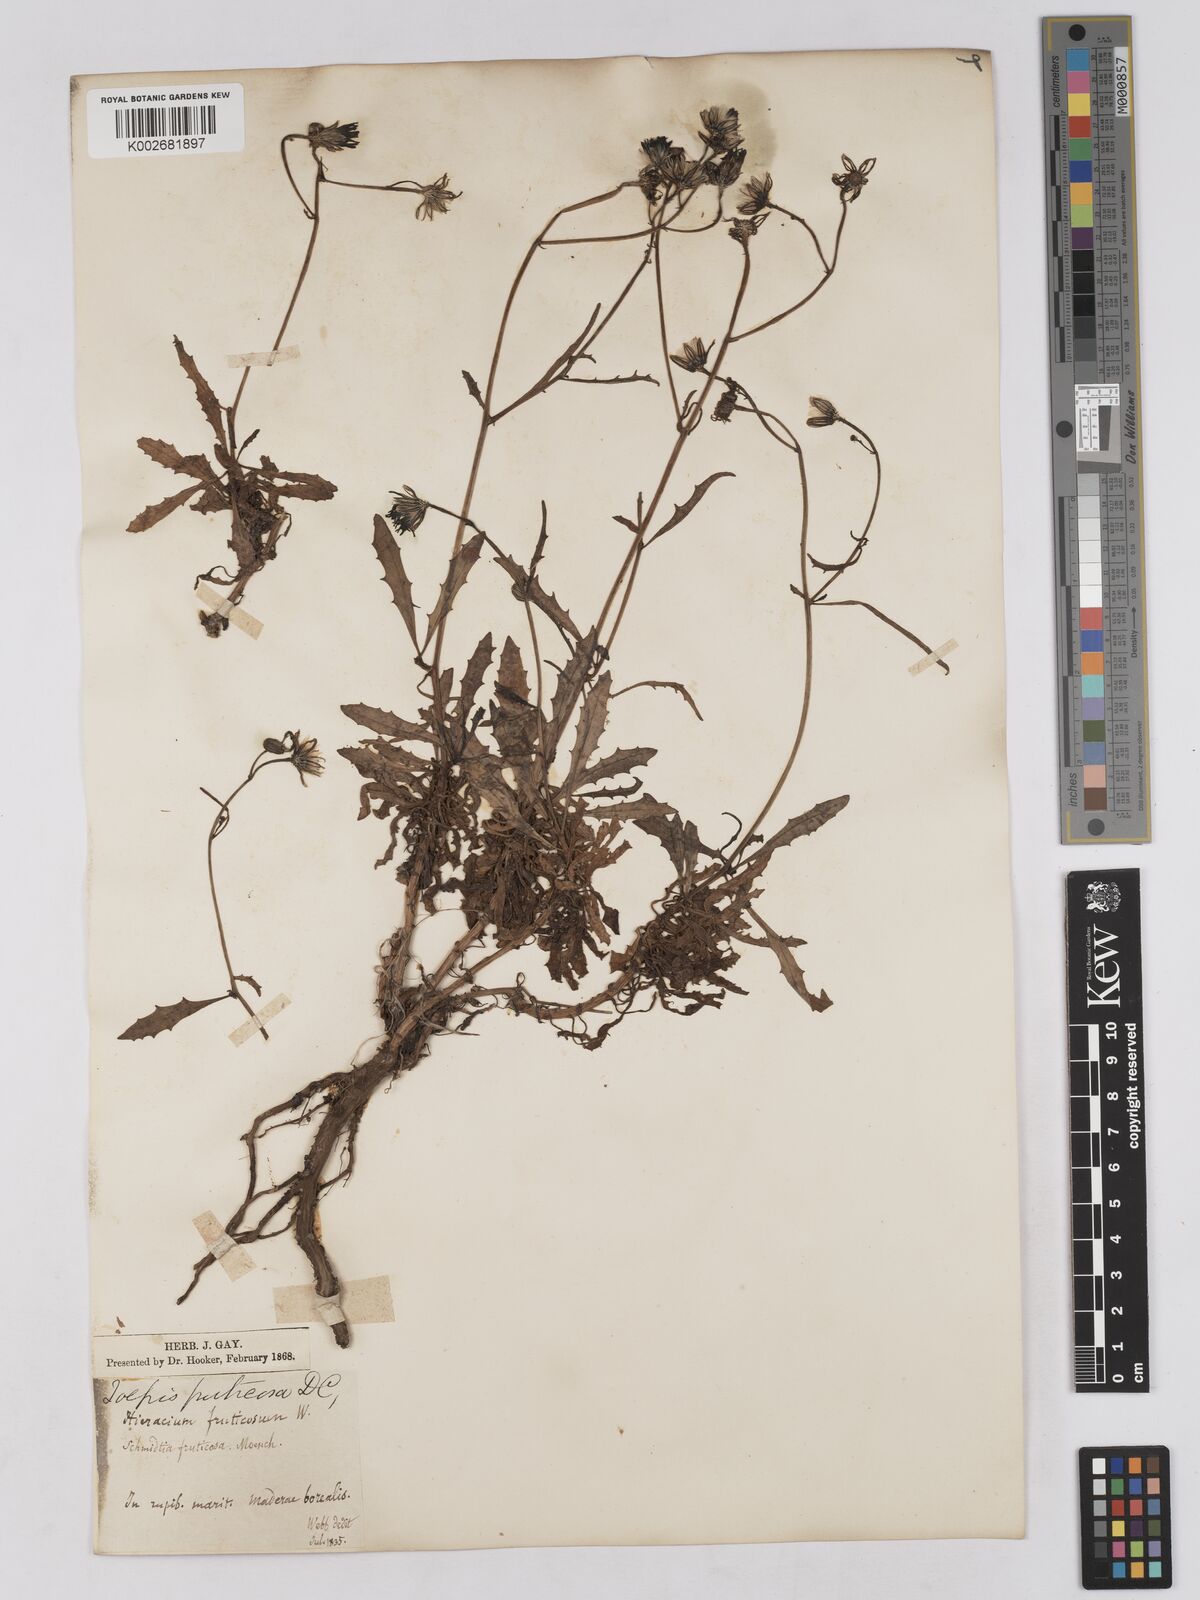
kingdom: Plantae
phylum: Tracheophyta
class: Magnoliopsida
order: Asterales
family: Asteraceae
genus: Tolpis
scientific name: Tolpis succulenta
